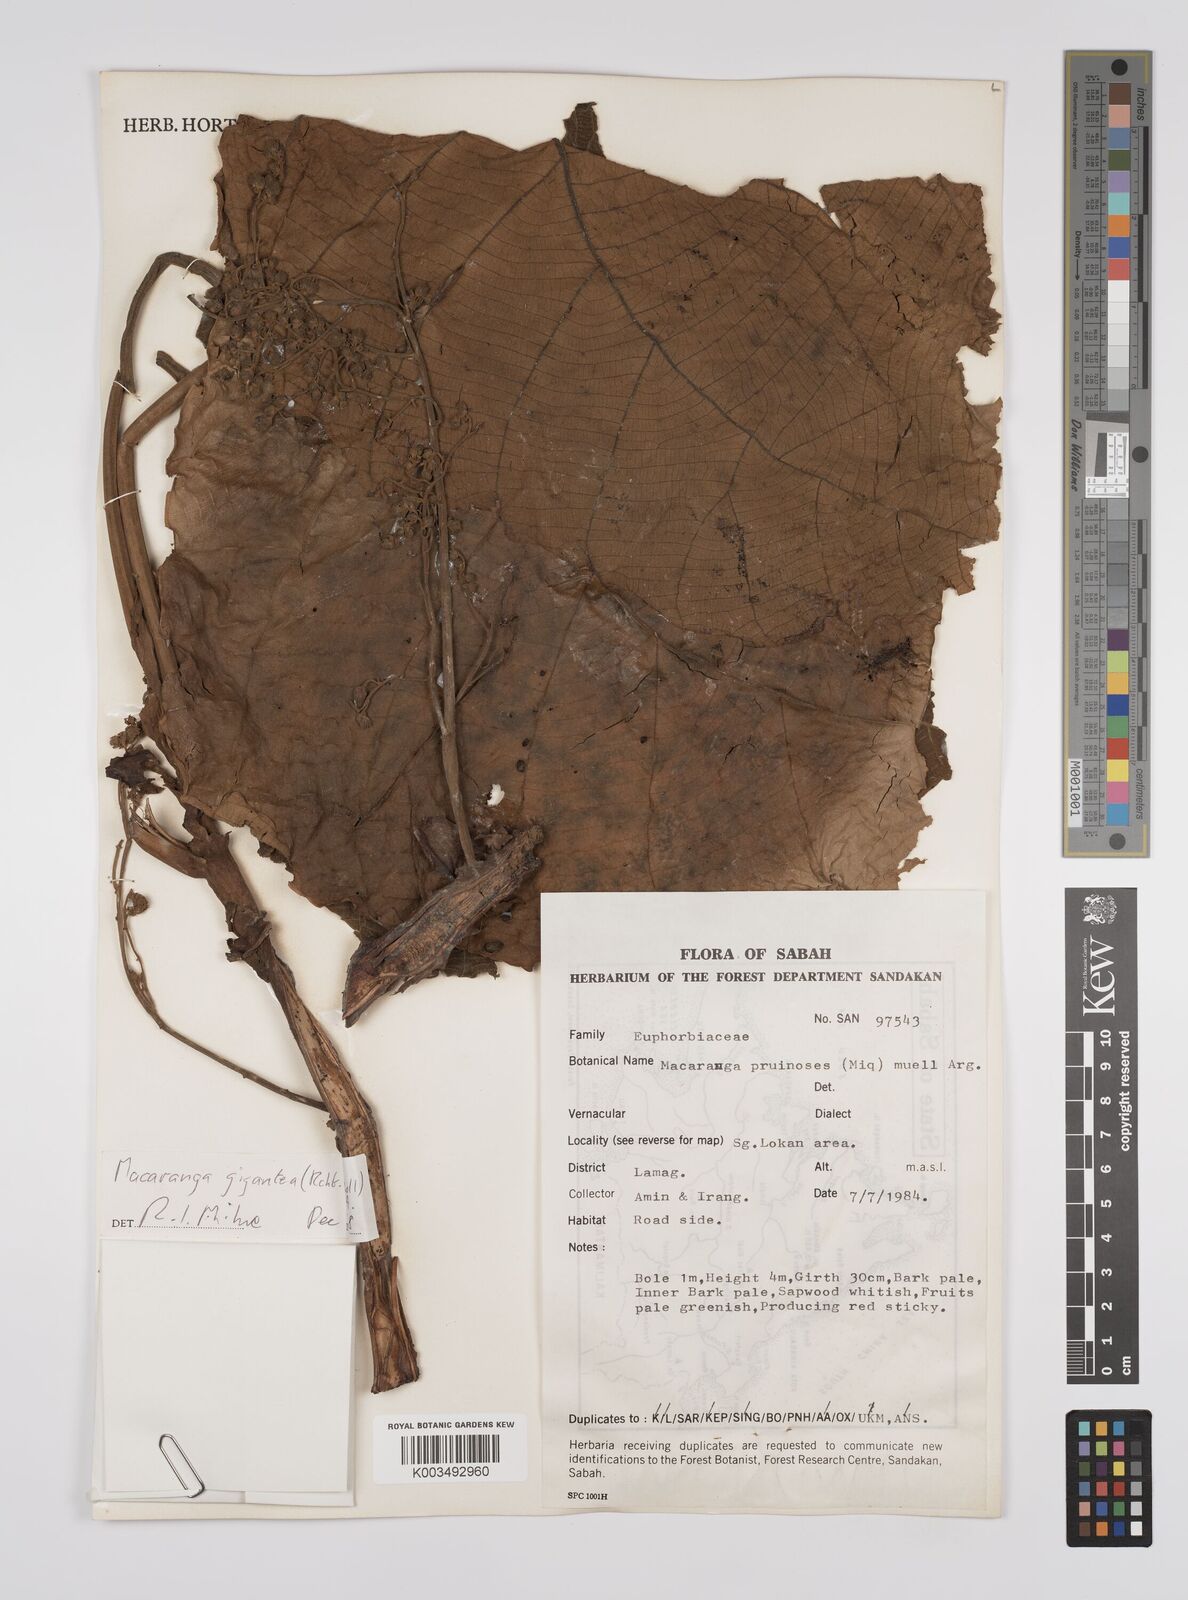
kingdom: Plantae
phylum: Tracheophyta
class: Magnoliopsida
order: Malpighiales
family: Euphorbiaceae
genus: Macaranga
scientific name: Macaranga gigantea
